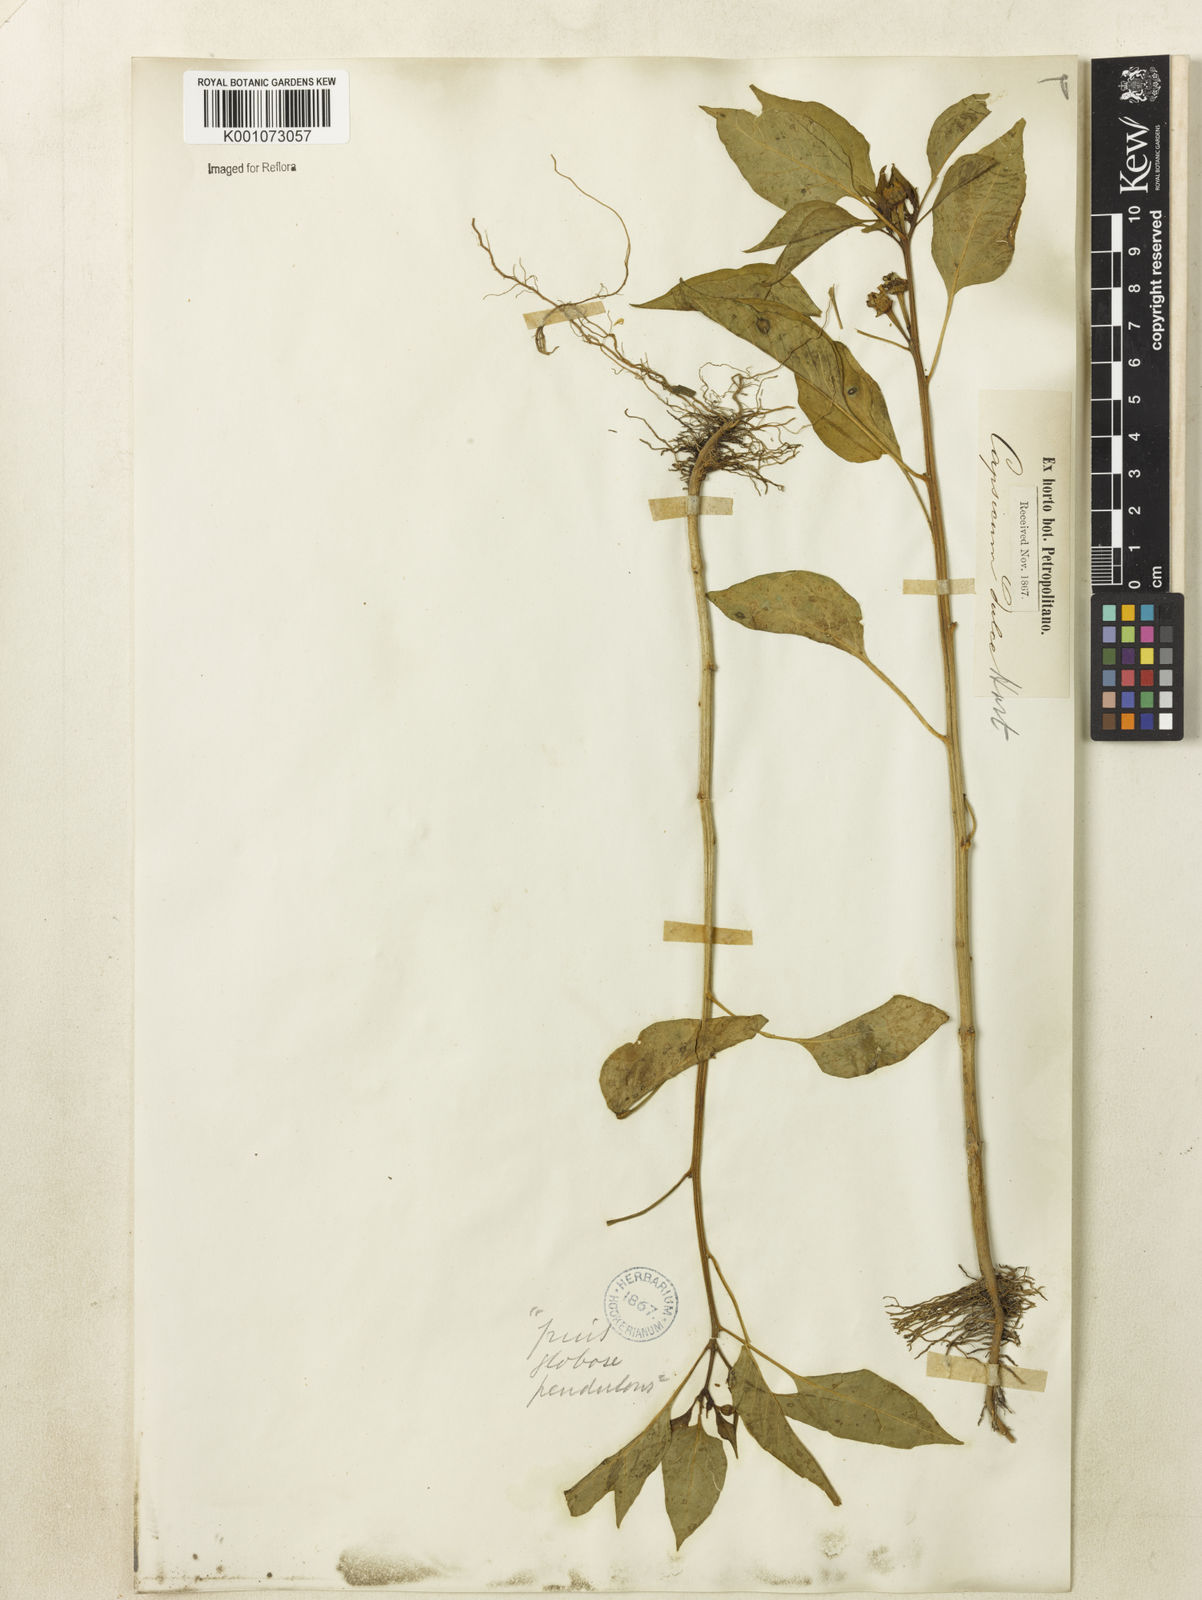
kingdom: Plantae
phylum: Tracheophyta
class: Magnoliopsida
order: Solanales
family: Solanaceae
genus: Capsicum
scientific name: Capsicum
